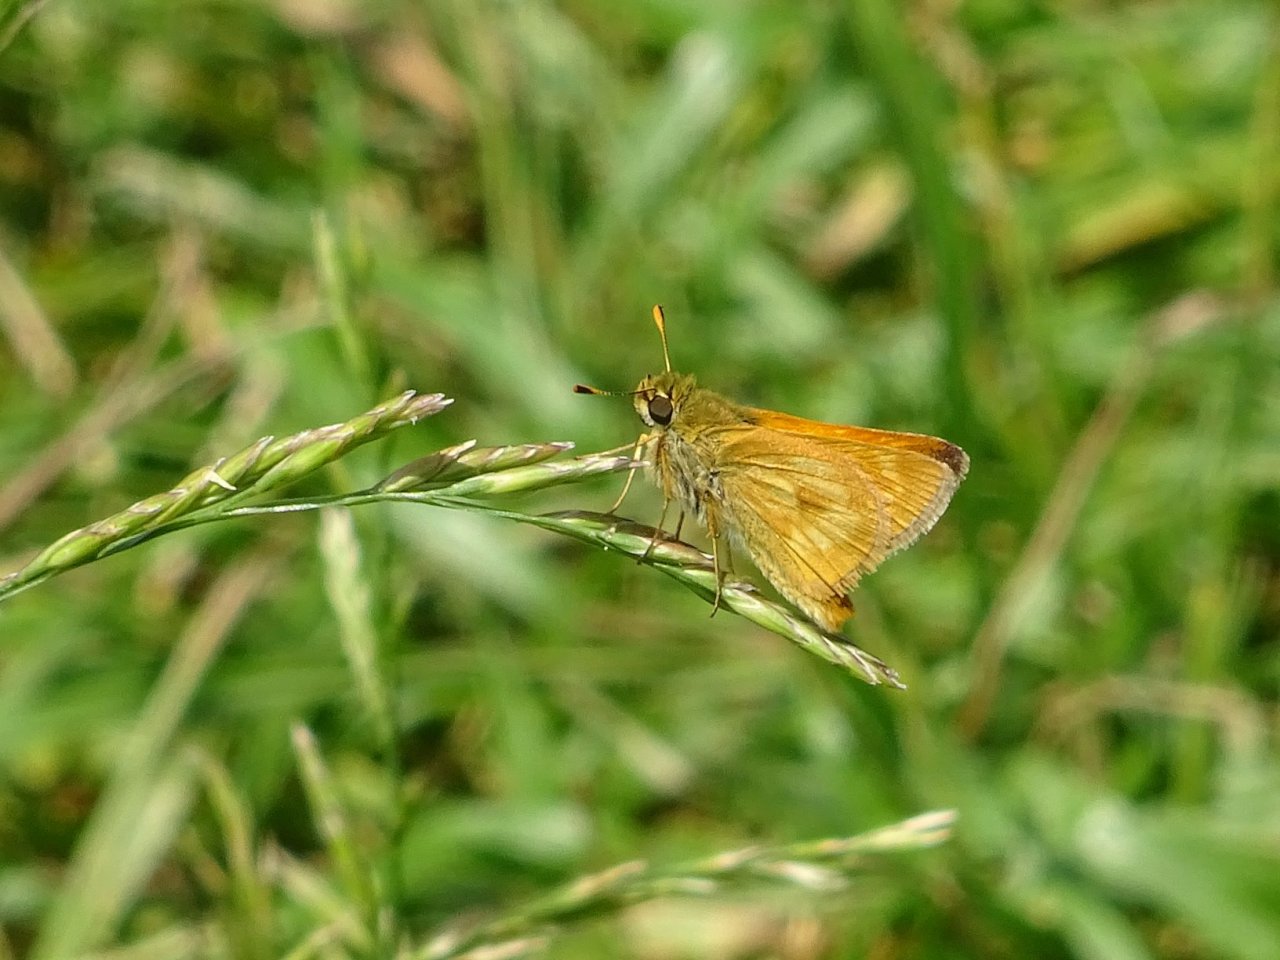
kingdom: Animalia
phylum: Arthropoda
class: Insecta
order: Lepidoptera
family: Hesperiidae
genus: Polites
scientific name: Polites
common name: Long Dash Skipper
